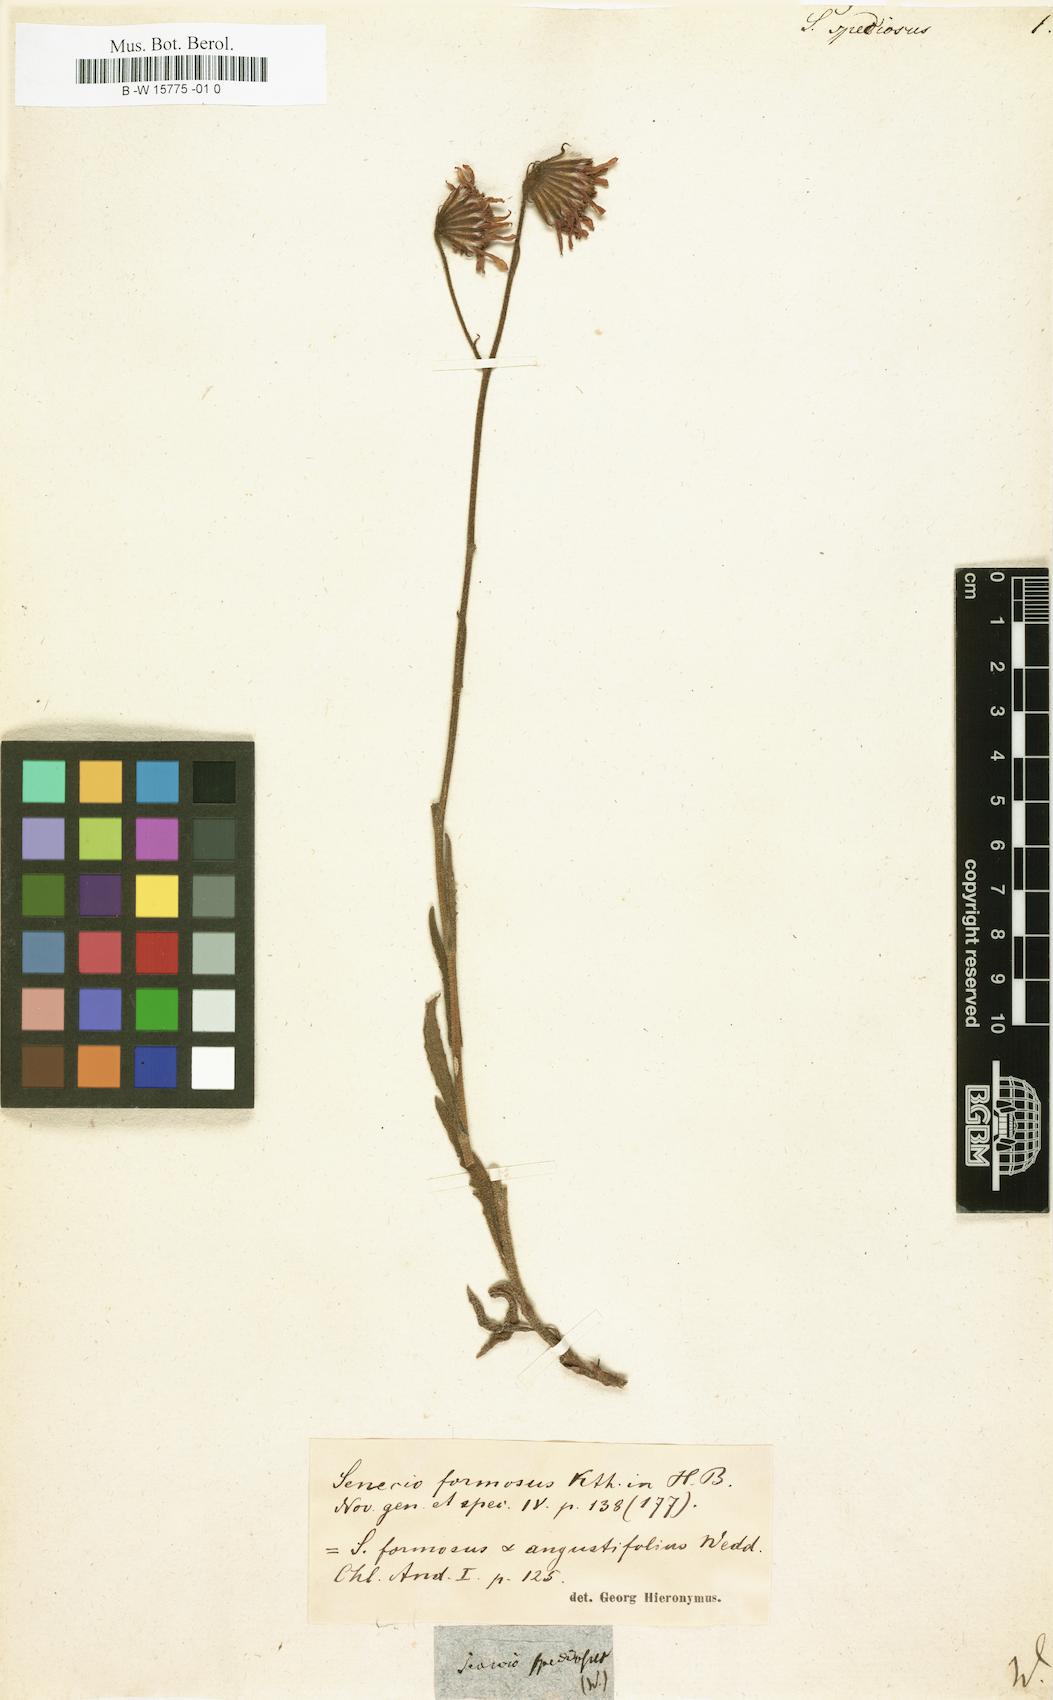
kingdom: Plantae
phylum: Tracheophyta
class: Magnoliopsida
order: Asterales
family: Asteraceae
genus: Senecio
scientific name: Senecio speciosus
